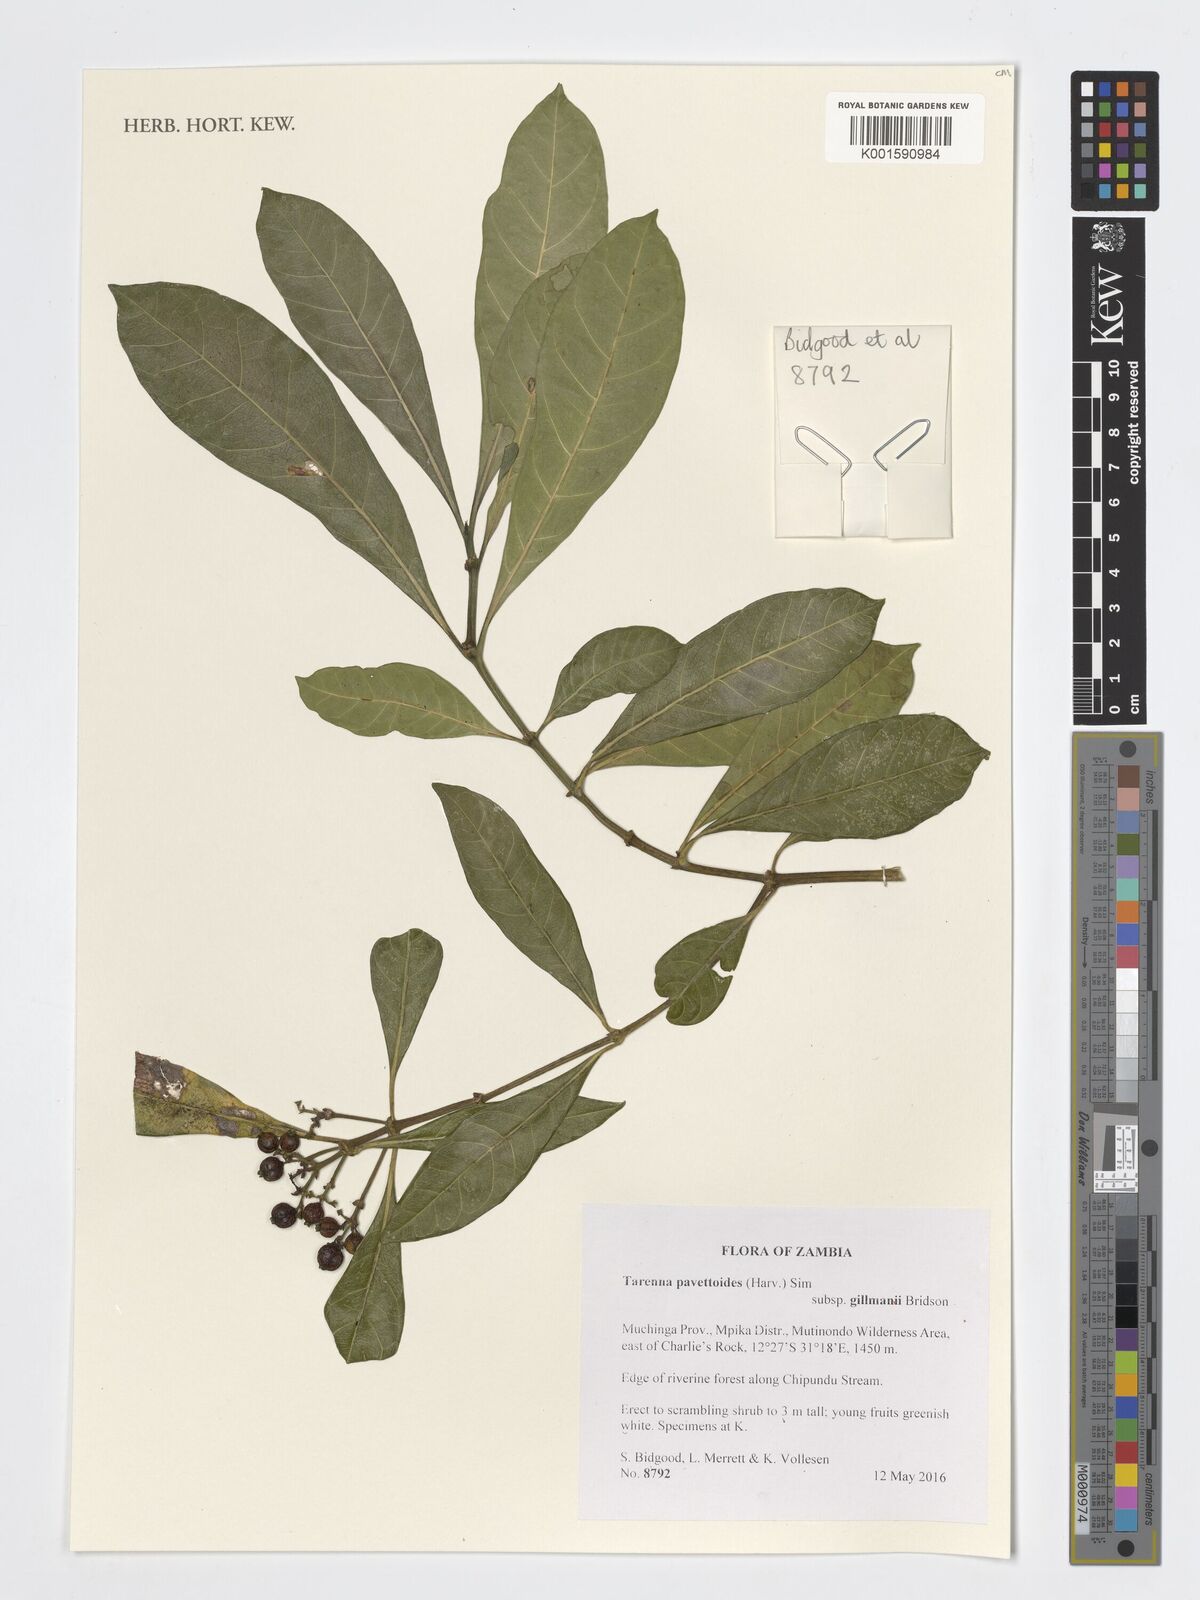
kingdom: Plantae
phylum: Tracheophyta
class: Magnoliopsida
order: Gentianales
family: Rubiaceae
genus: Tarenna
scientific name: Tarenna pavettoides
